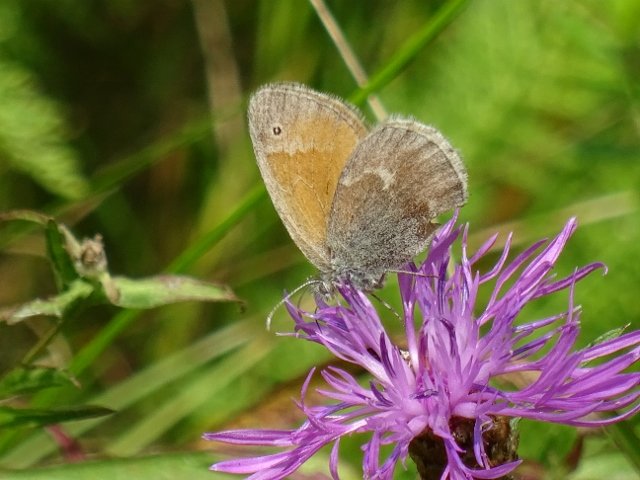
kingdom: Animalia
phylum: Arthropoda
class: Insecta
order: Lepidoptera
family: Nymphalidae
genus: Coenonympha
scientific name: Coenonympha tullia
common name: Large Heath
